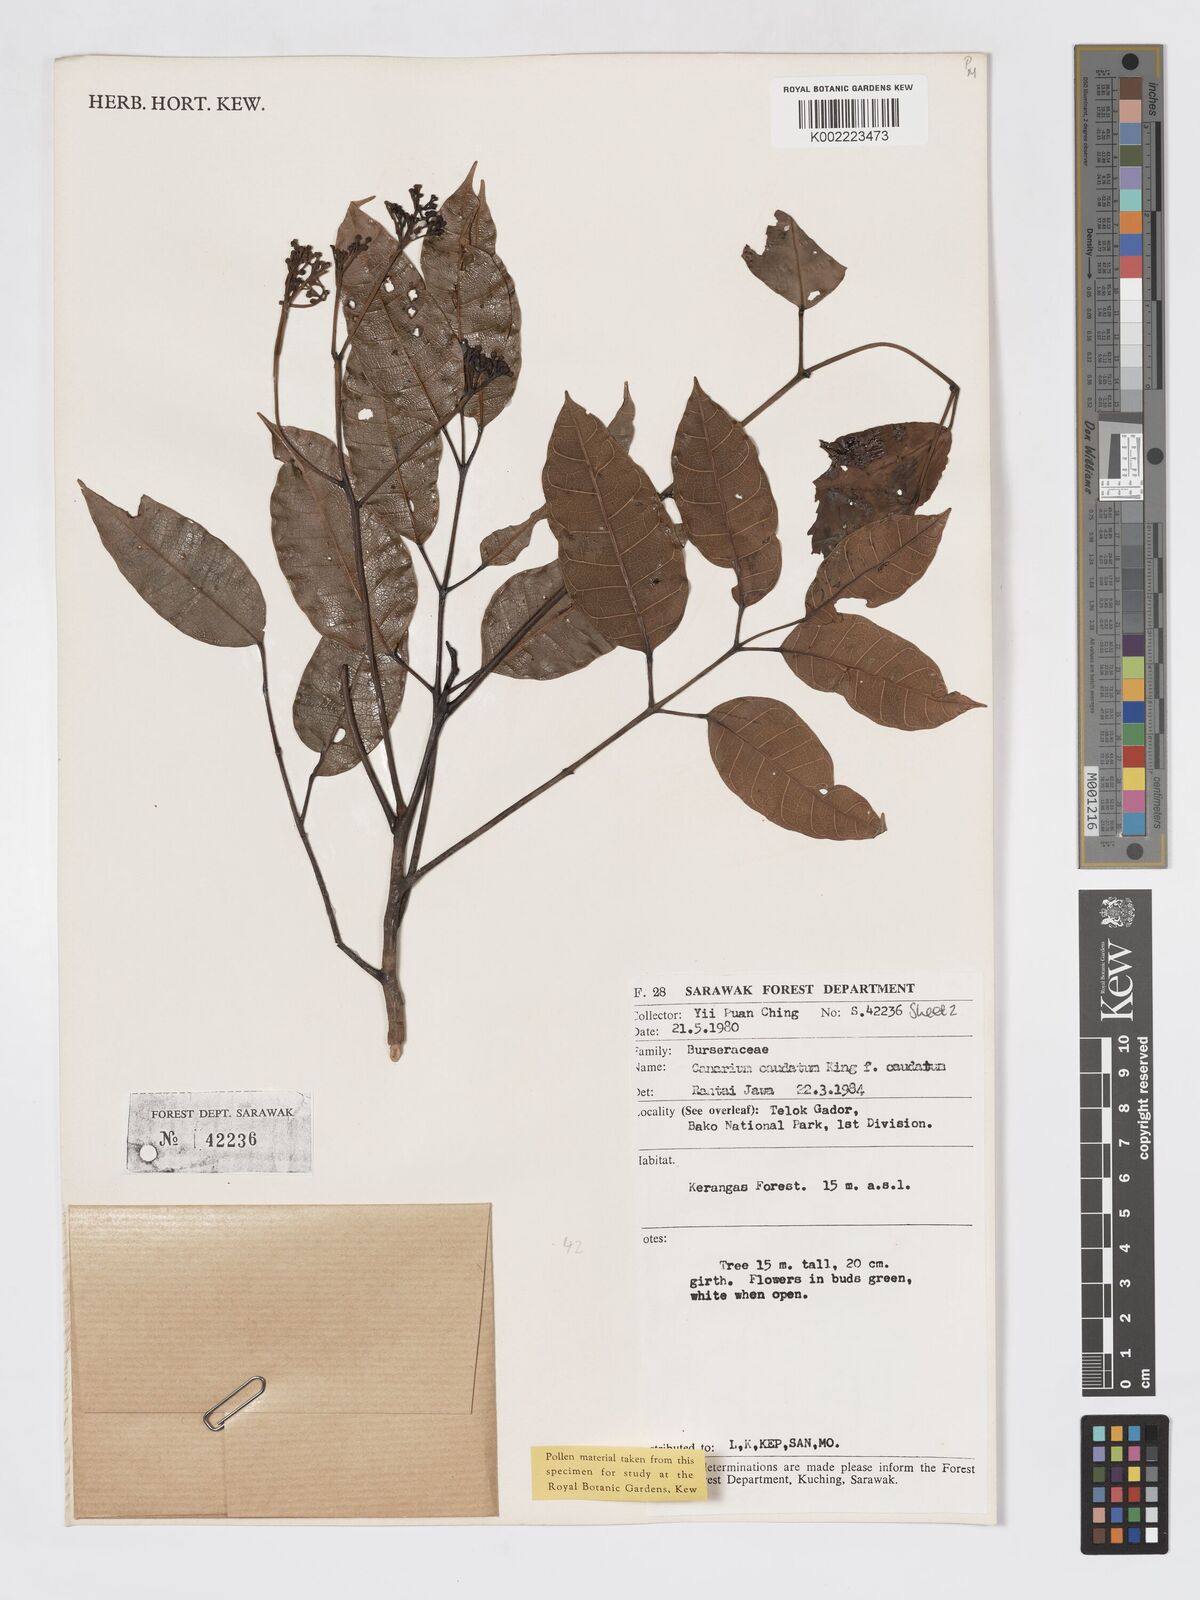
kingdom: Plantae
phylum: Tracheophyta
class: Magnoliopsida
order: Sapindales
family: Burseraceae
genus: Canarium
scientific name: Canarium caudatum
